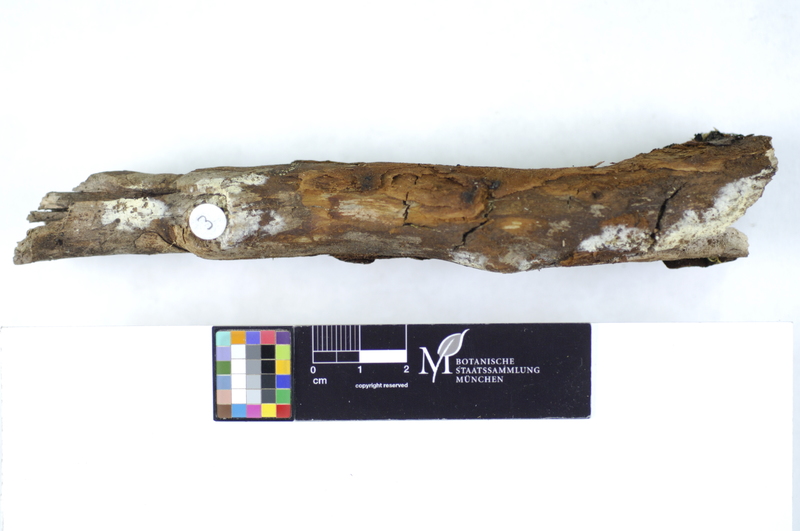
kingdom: Fungi
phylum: Basidiomycota
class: Agaricomycetes
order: Polyporales
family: Hyphodermataceae
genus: Hyphoderma
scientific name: Hyphoderma setigerum
